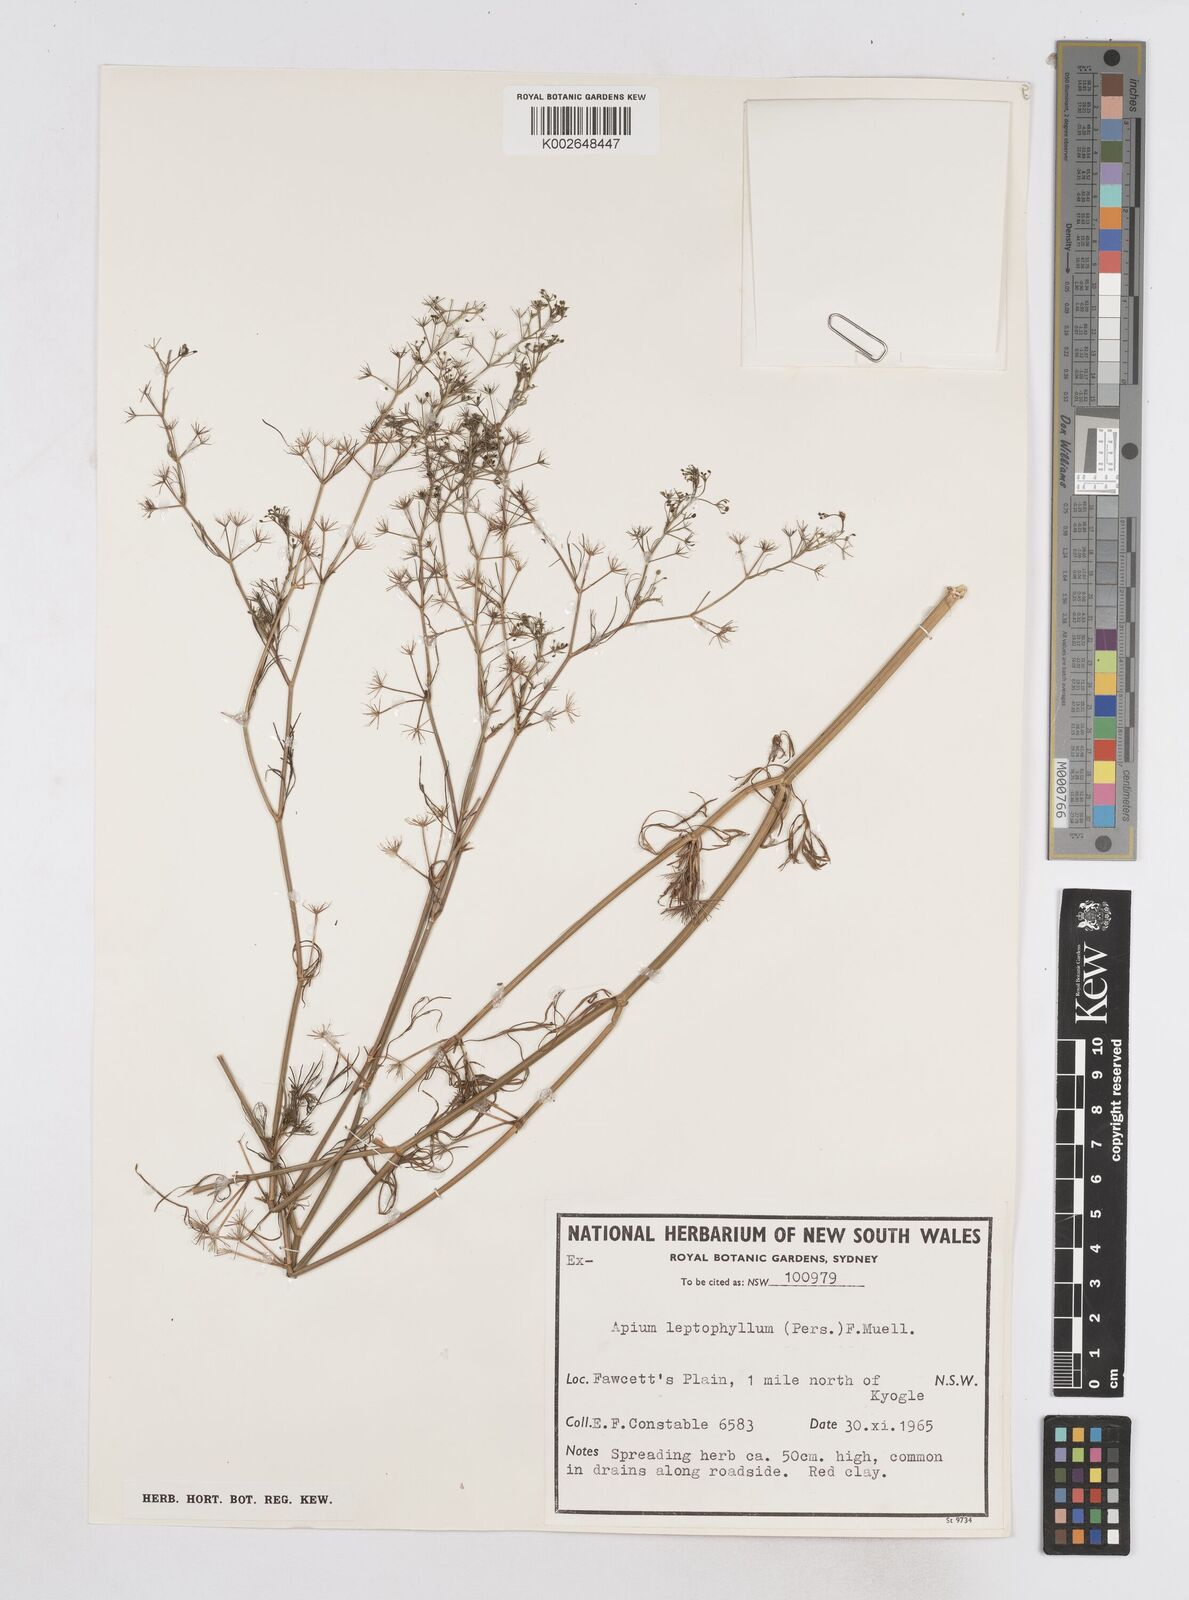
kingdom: Plantae
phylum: Tracheophyta
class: Magnoliopsida
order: Apiales
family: Apiaceae
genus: Cyclospermum
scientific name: Cyclospermum leptophyllum
